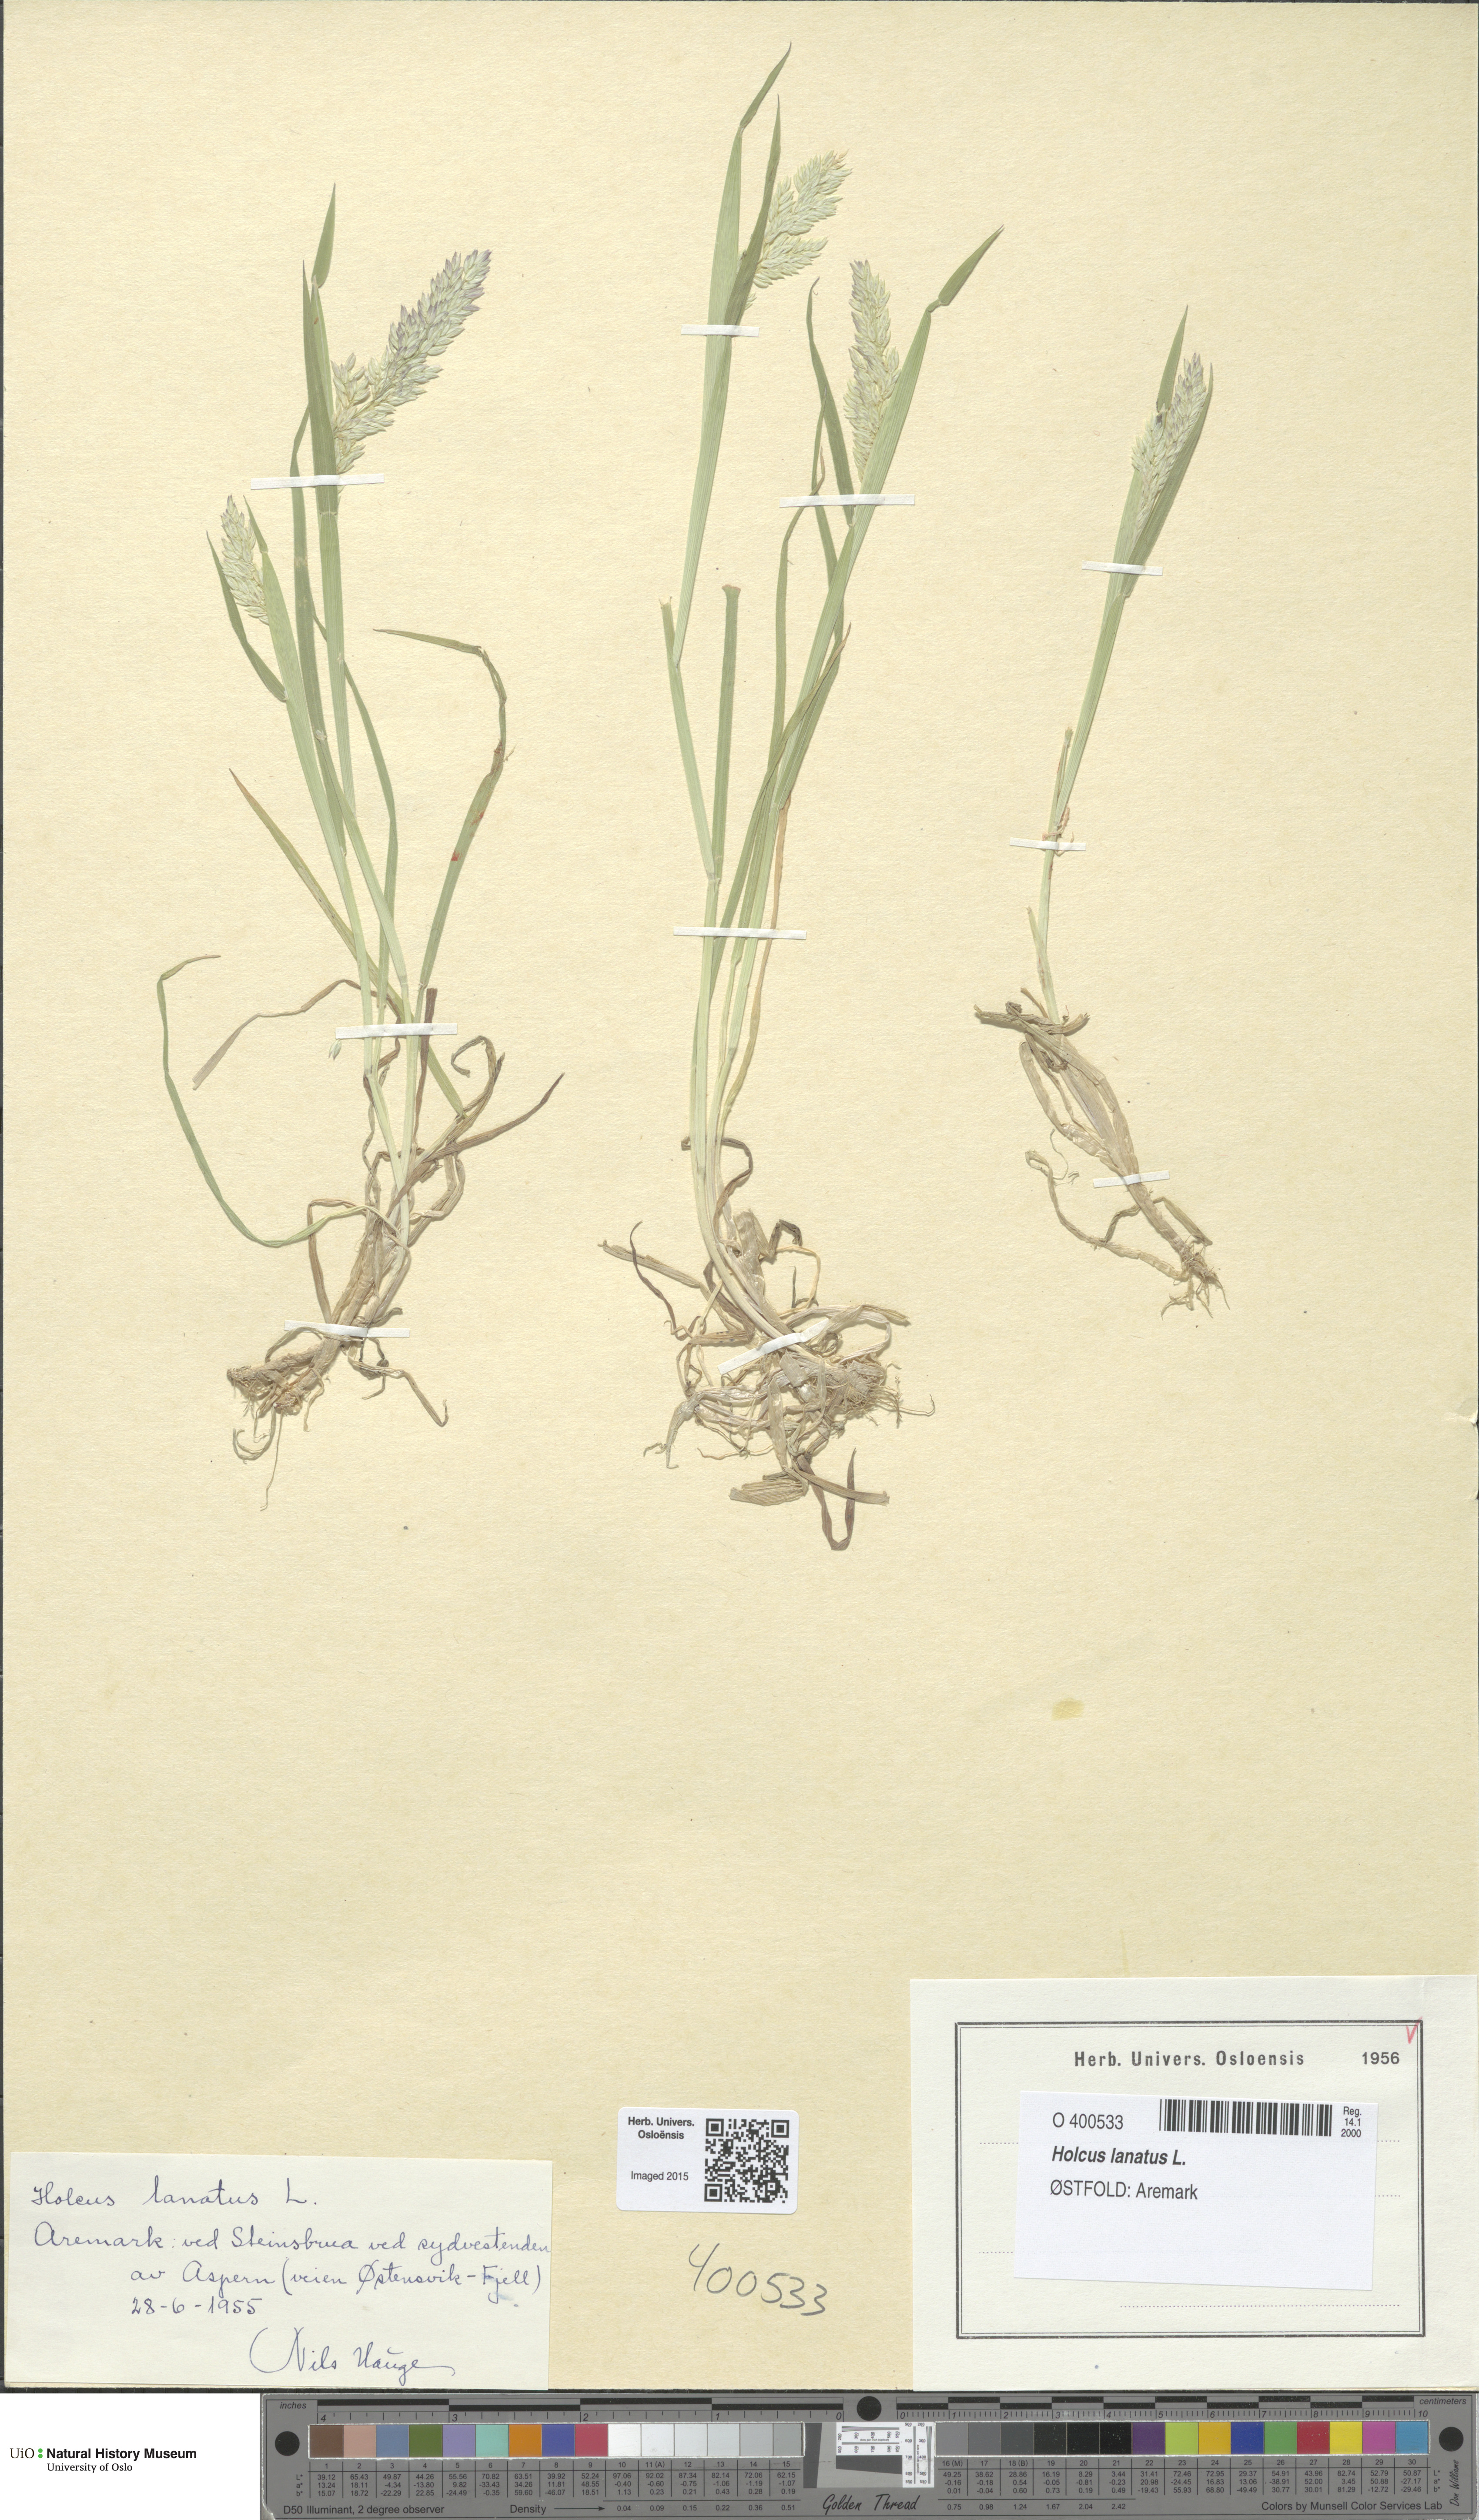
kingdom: Plantae
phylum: Tracheophyta
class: Liliopsida
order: Poales
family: Poaceae
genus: Holcus
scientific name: Holcus lanatus
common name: Yorkshire-fog
